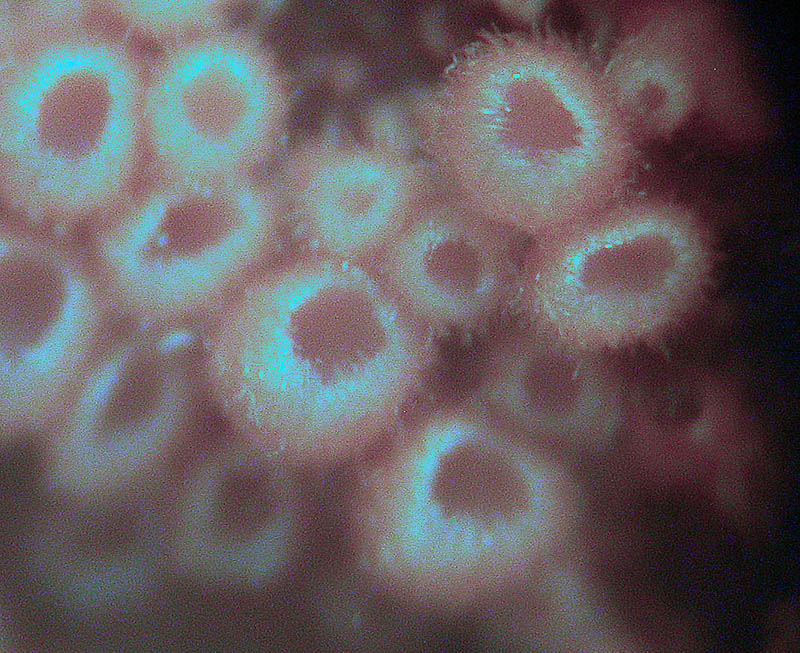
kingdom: Fungi
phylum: Basidiomycota
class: Agaricomycetes
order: Agaricales
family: Niaceae
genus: Woldmaria
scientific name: Woldmaria filicina
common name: bregnerør
